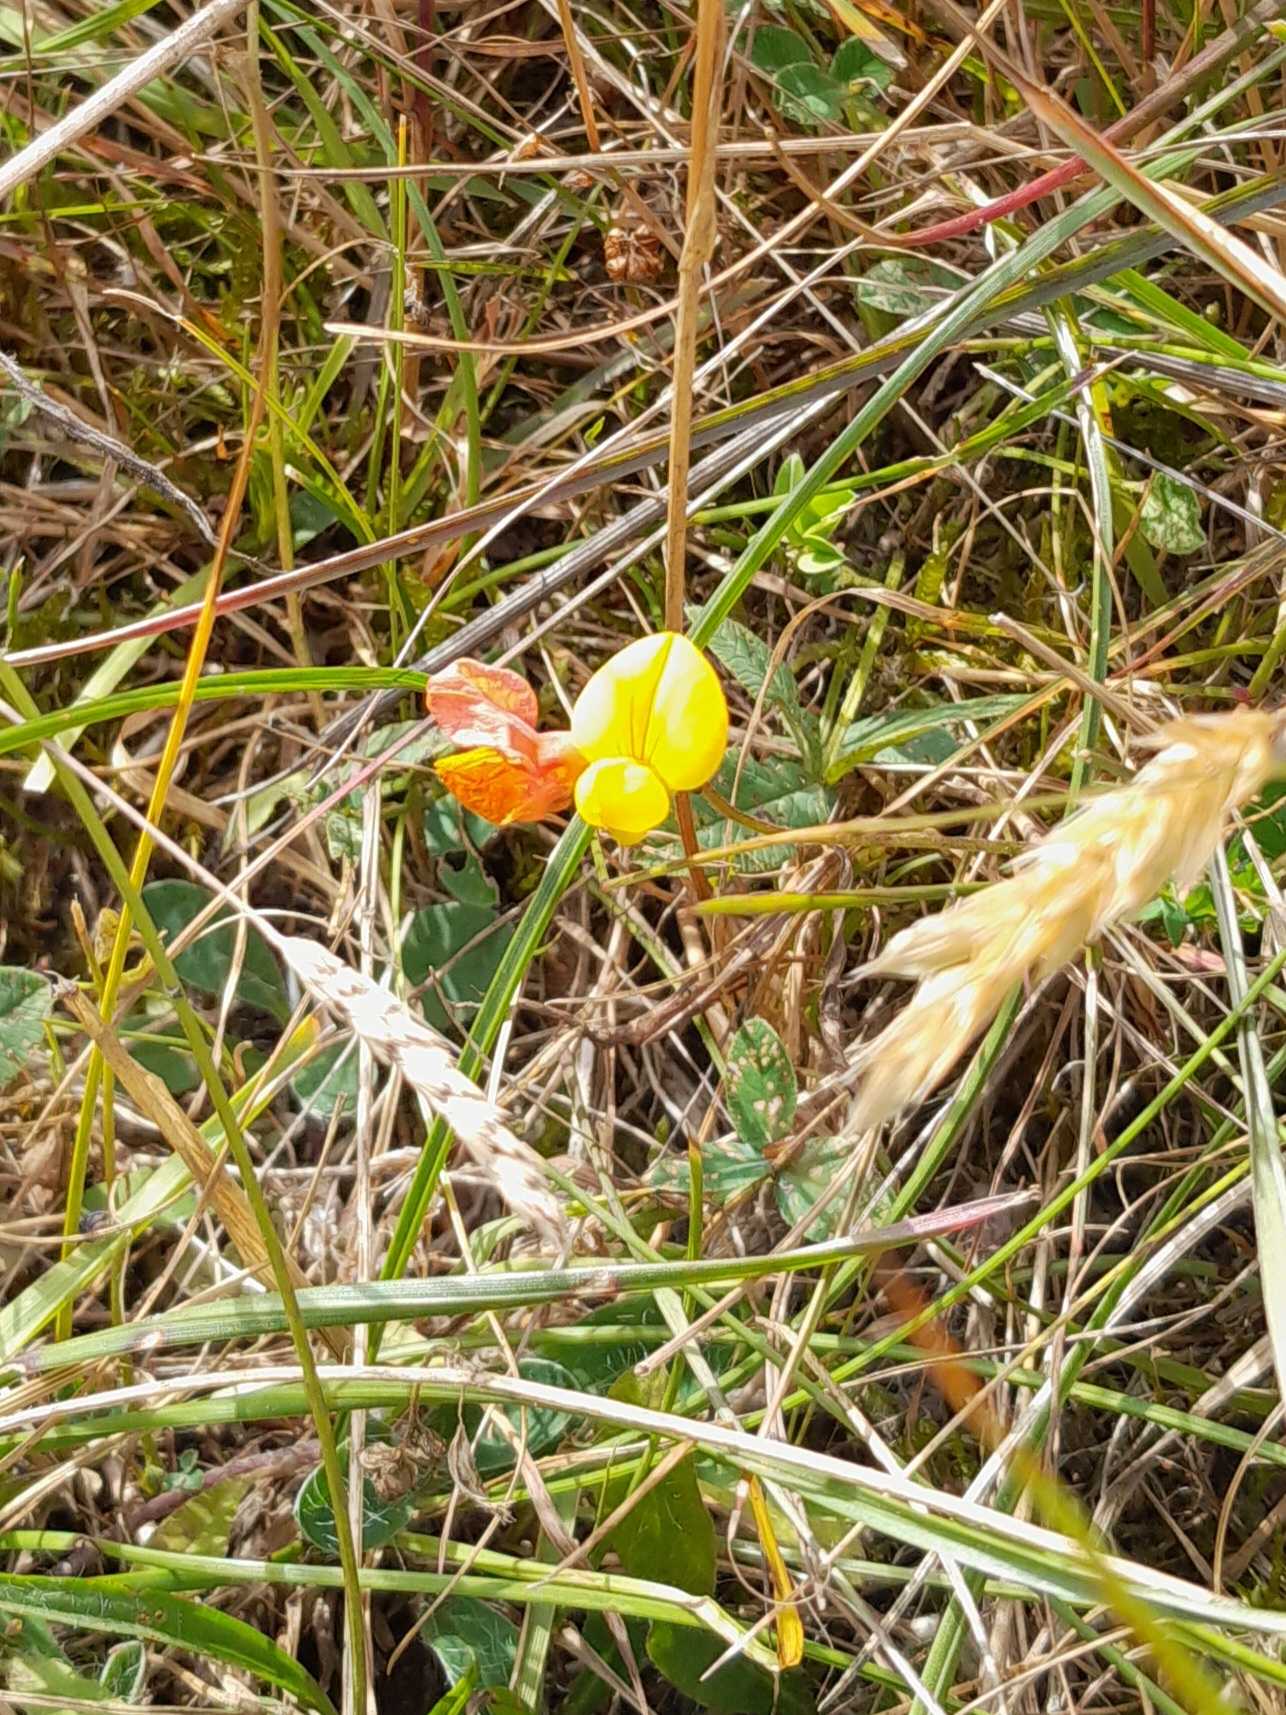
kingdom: Plantae
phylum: Tracheophyta
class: Magnoliopsida
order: Fabales
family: Fabaceae
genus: Lotus
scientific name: Lotus corniculatus
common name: Almindelig kællingetand
